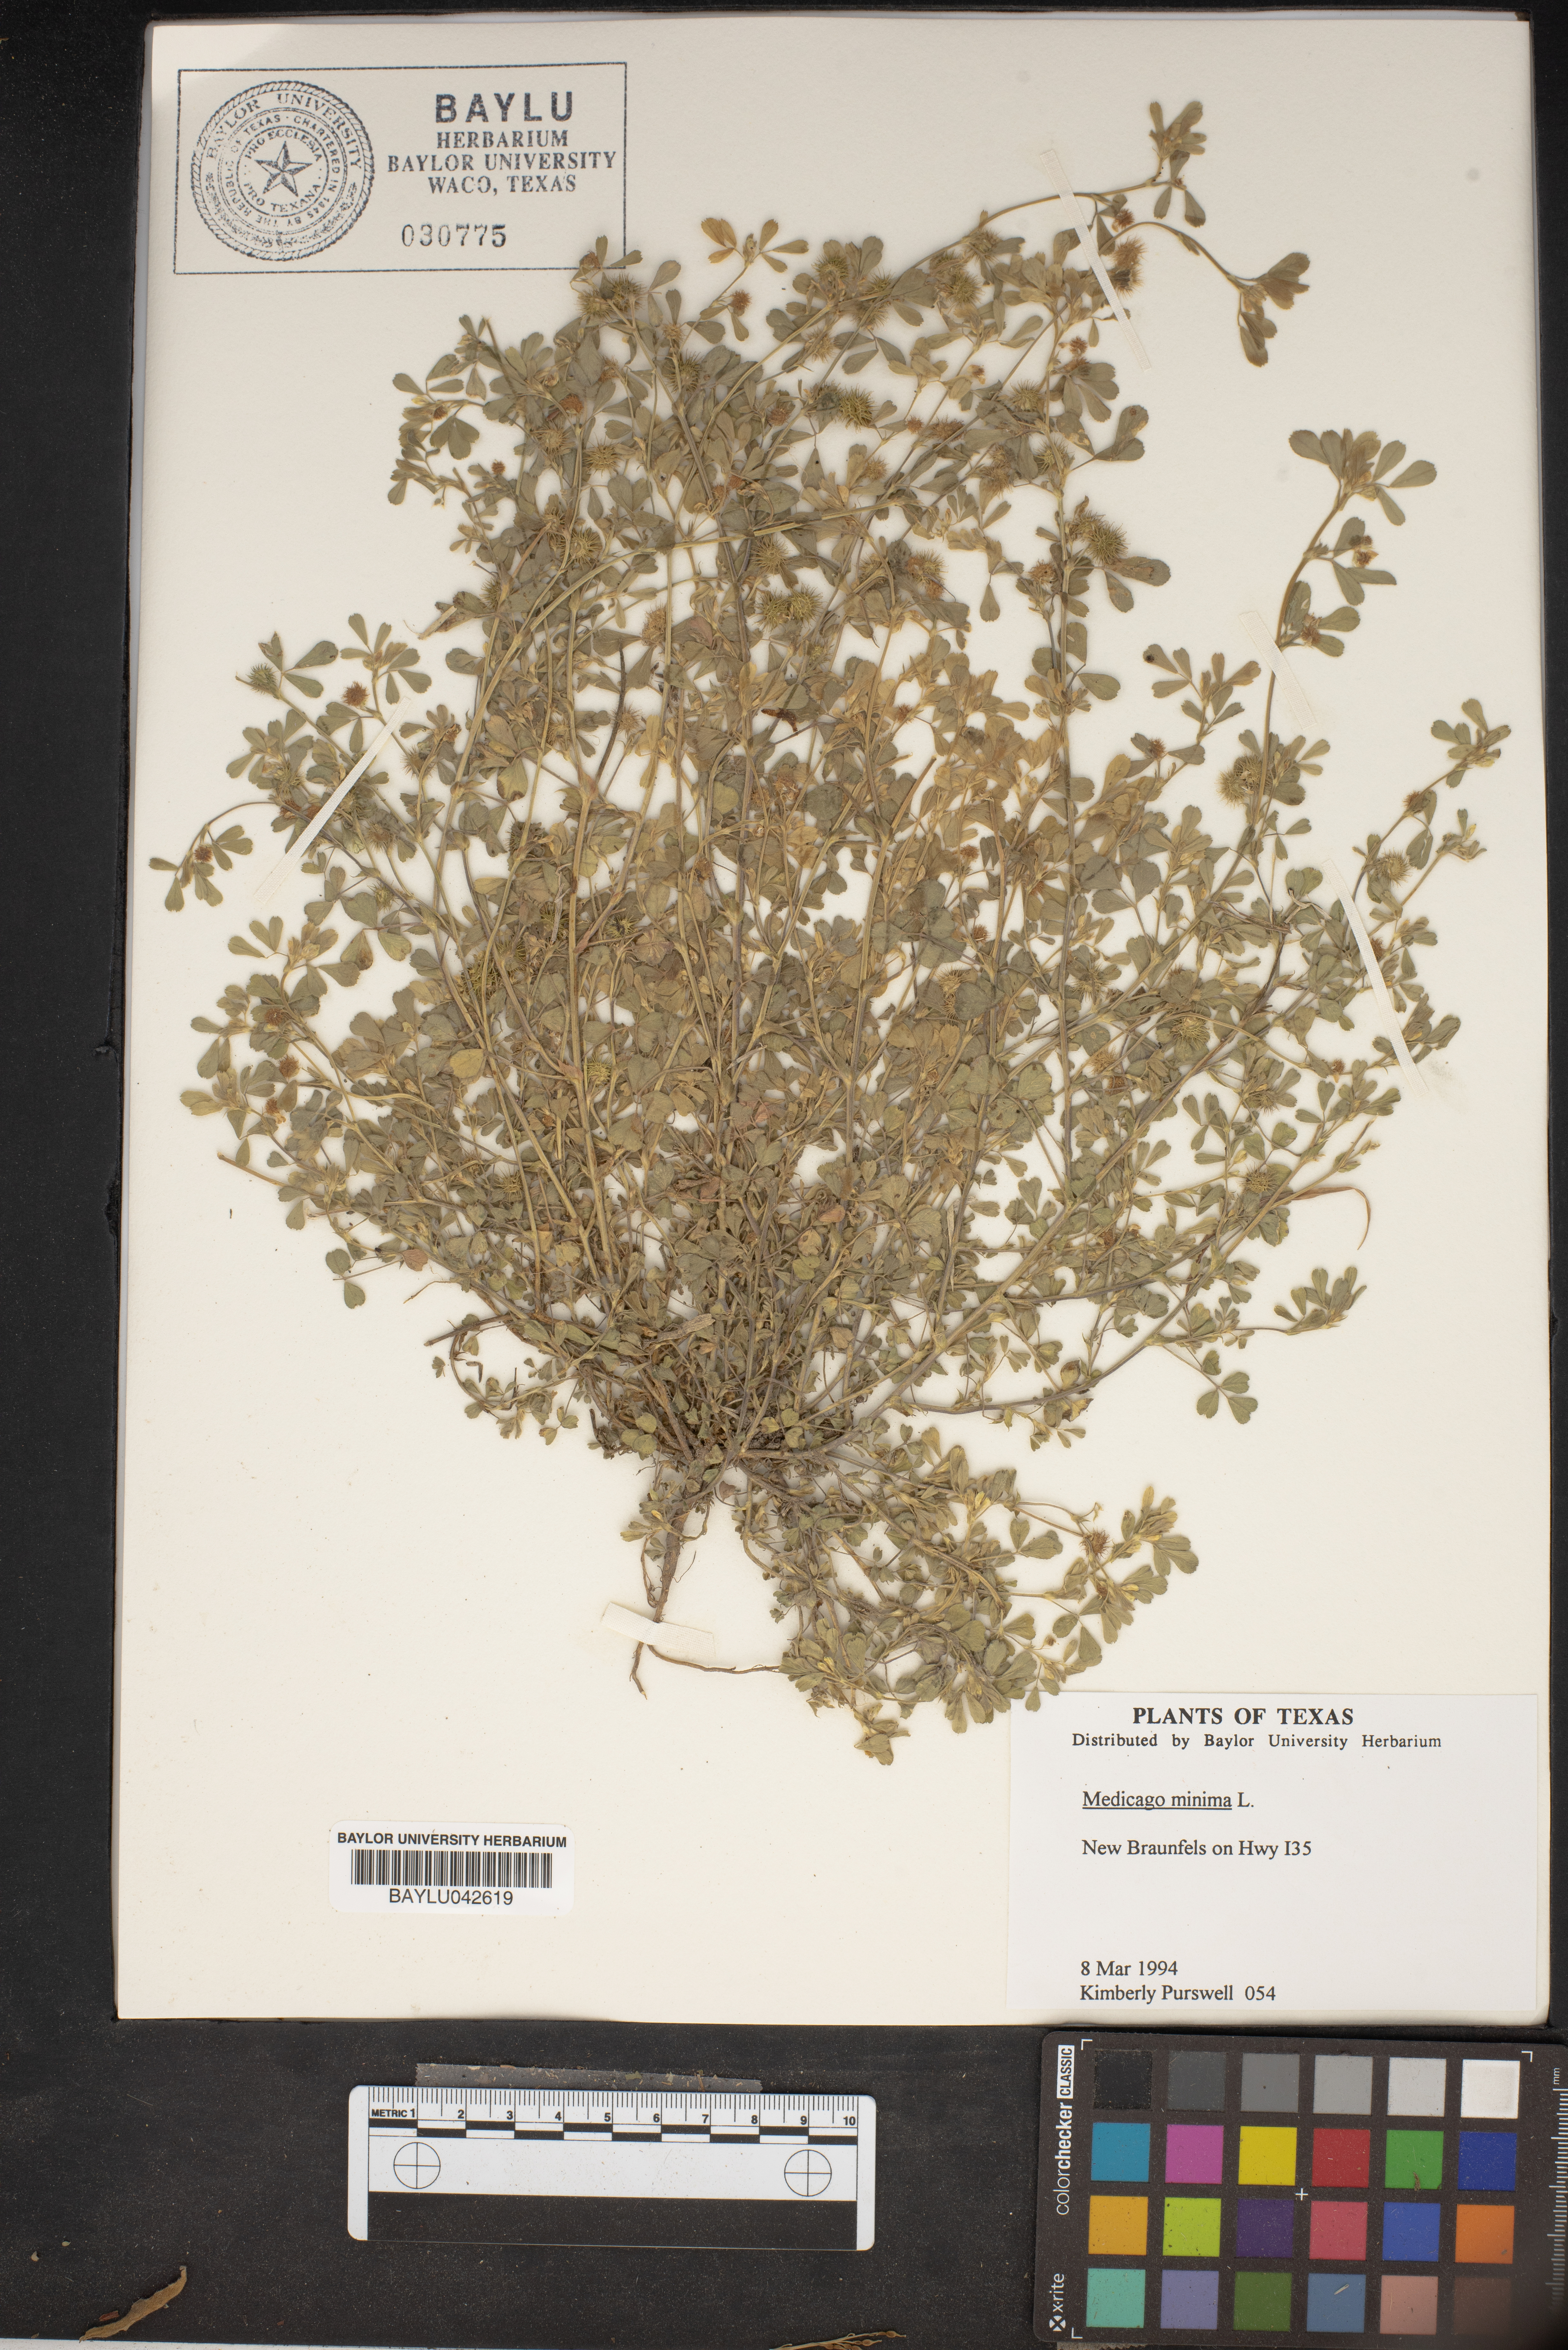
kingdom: Plantae
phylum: Tracheophyta
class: Magnoliopsida
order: Fabales
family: Fabaceae
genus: Medicago
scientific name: Medicago minima
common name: Little bur-clover
